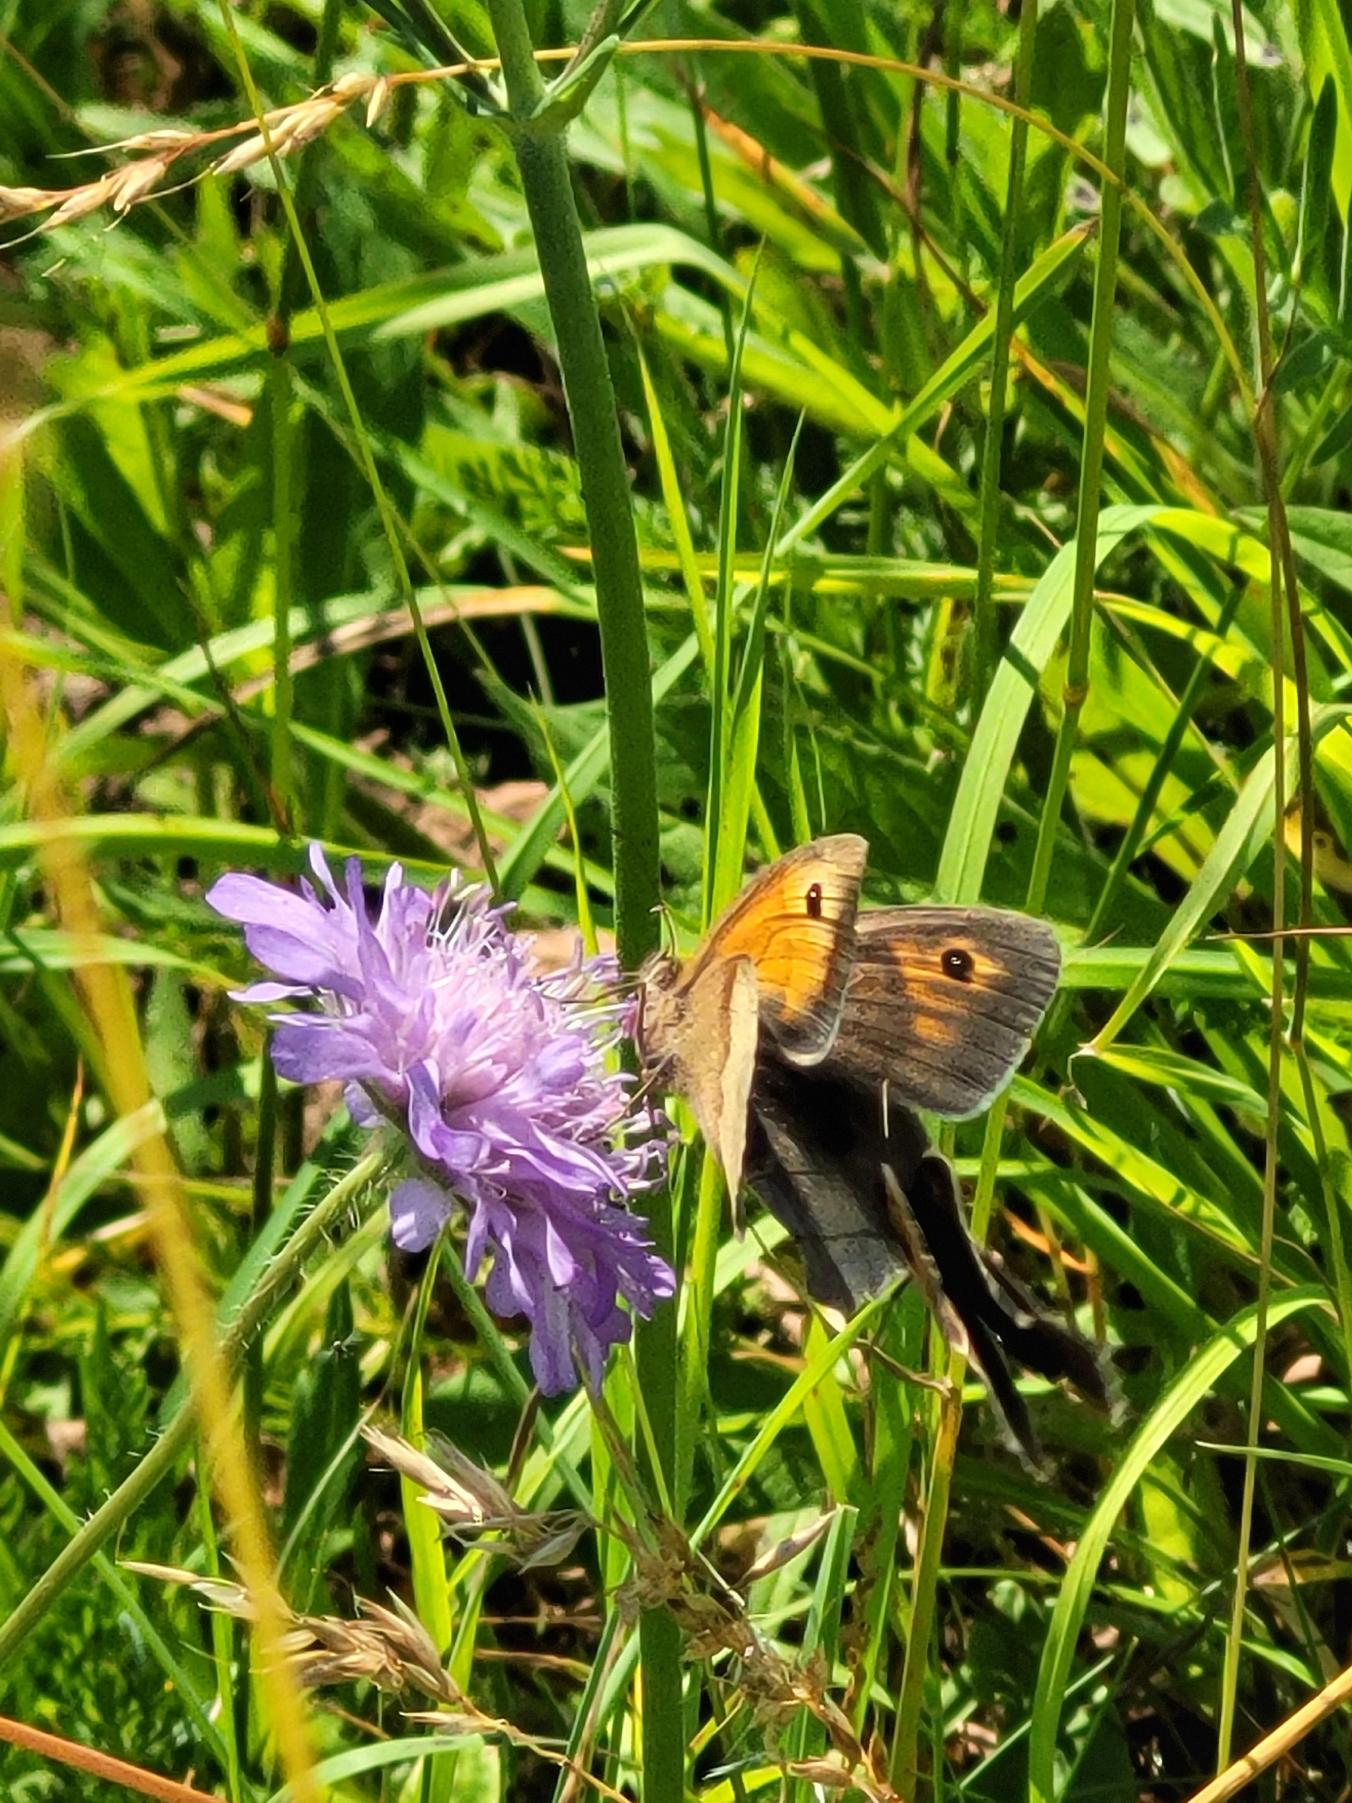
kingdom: Animalia
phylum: Arthropoda
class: Insecta
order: Lepidoptera
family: Nymphalidae
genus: Maniola
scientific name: Maniola jurtina
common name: Græsrandøje
